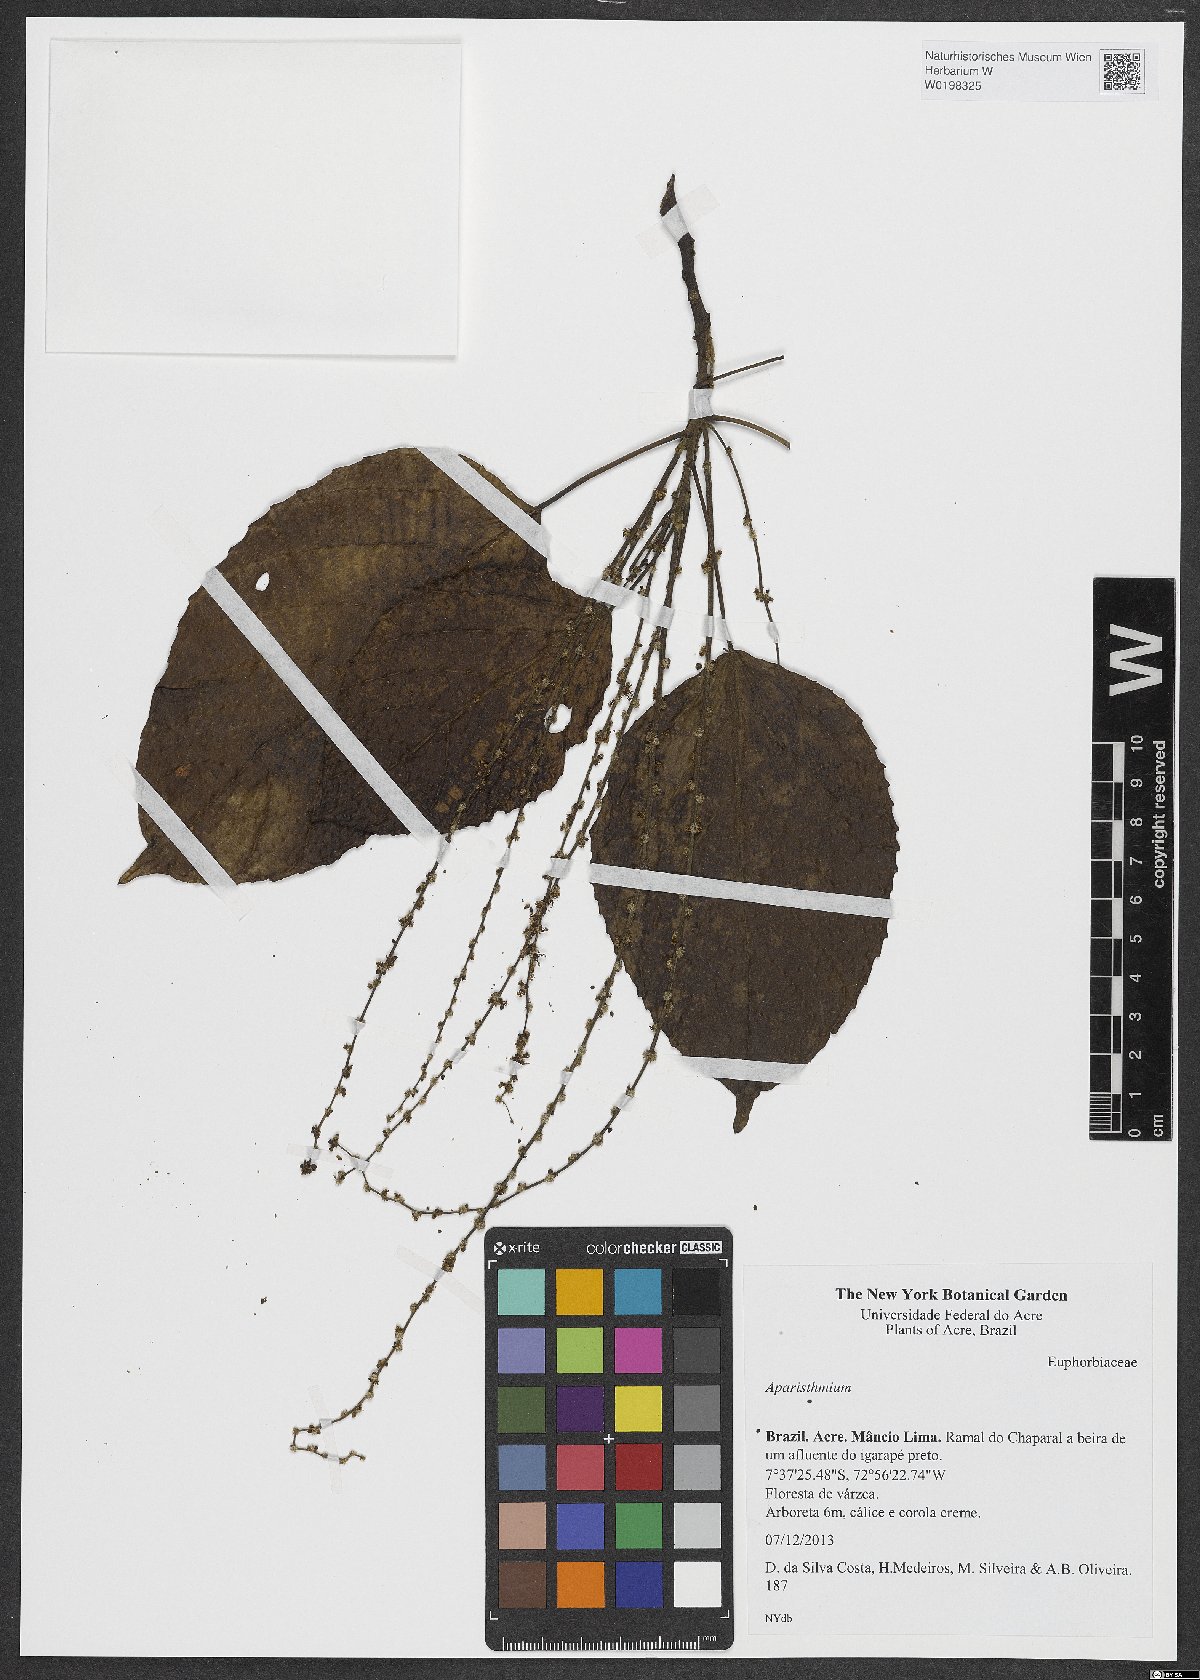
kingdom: Plantae
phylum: Tracheophyta
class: Magnoliopsida
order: Malpighiales
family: Euphorbiaceae
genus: Aparisthmium
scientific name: Aparisthmium
